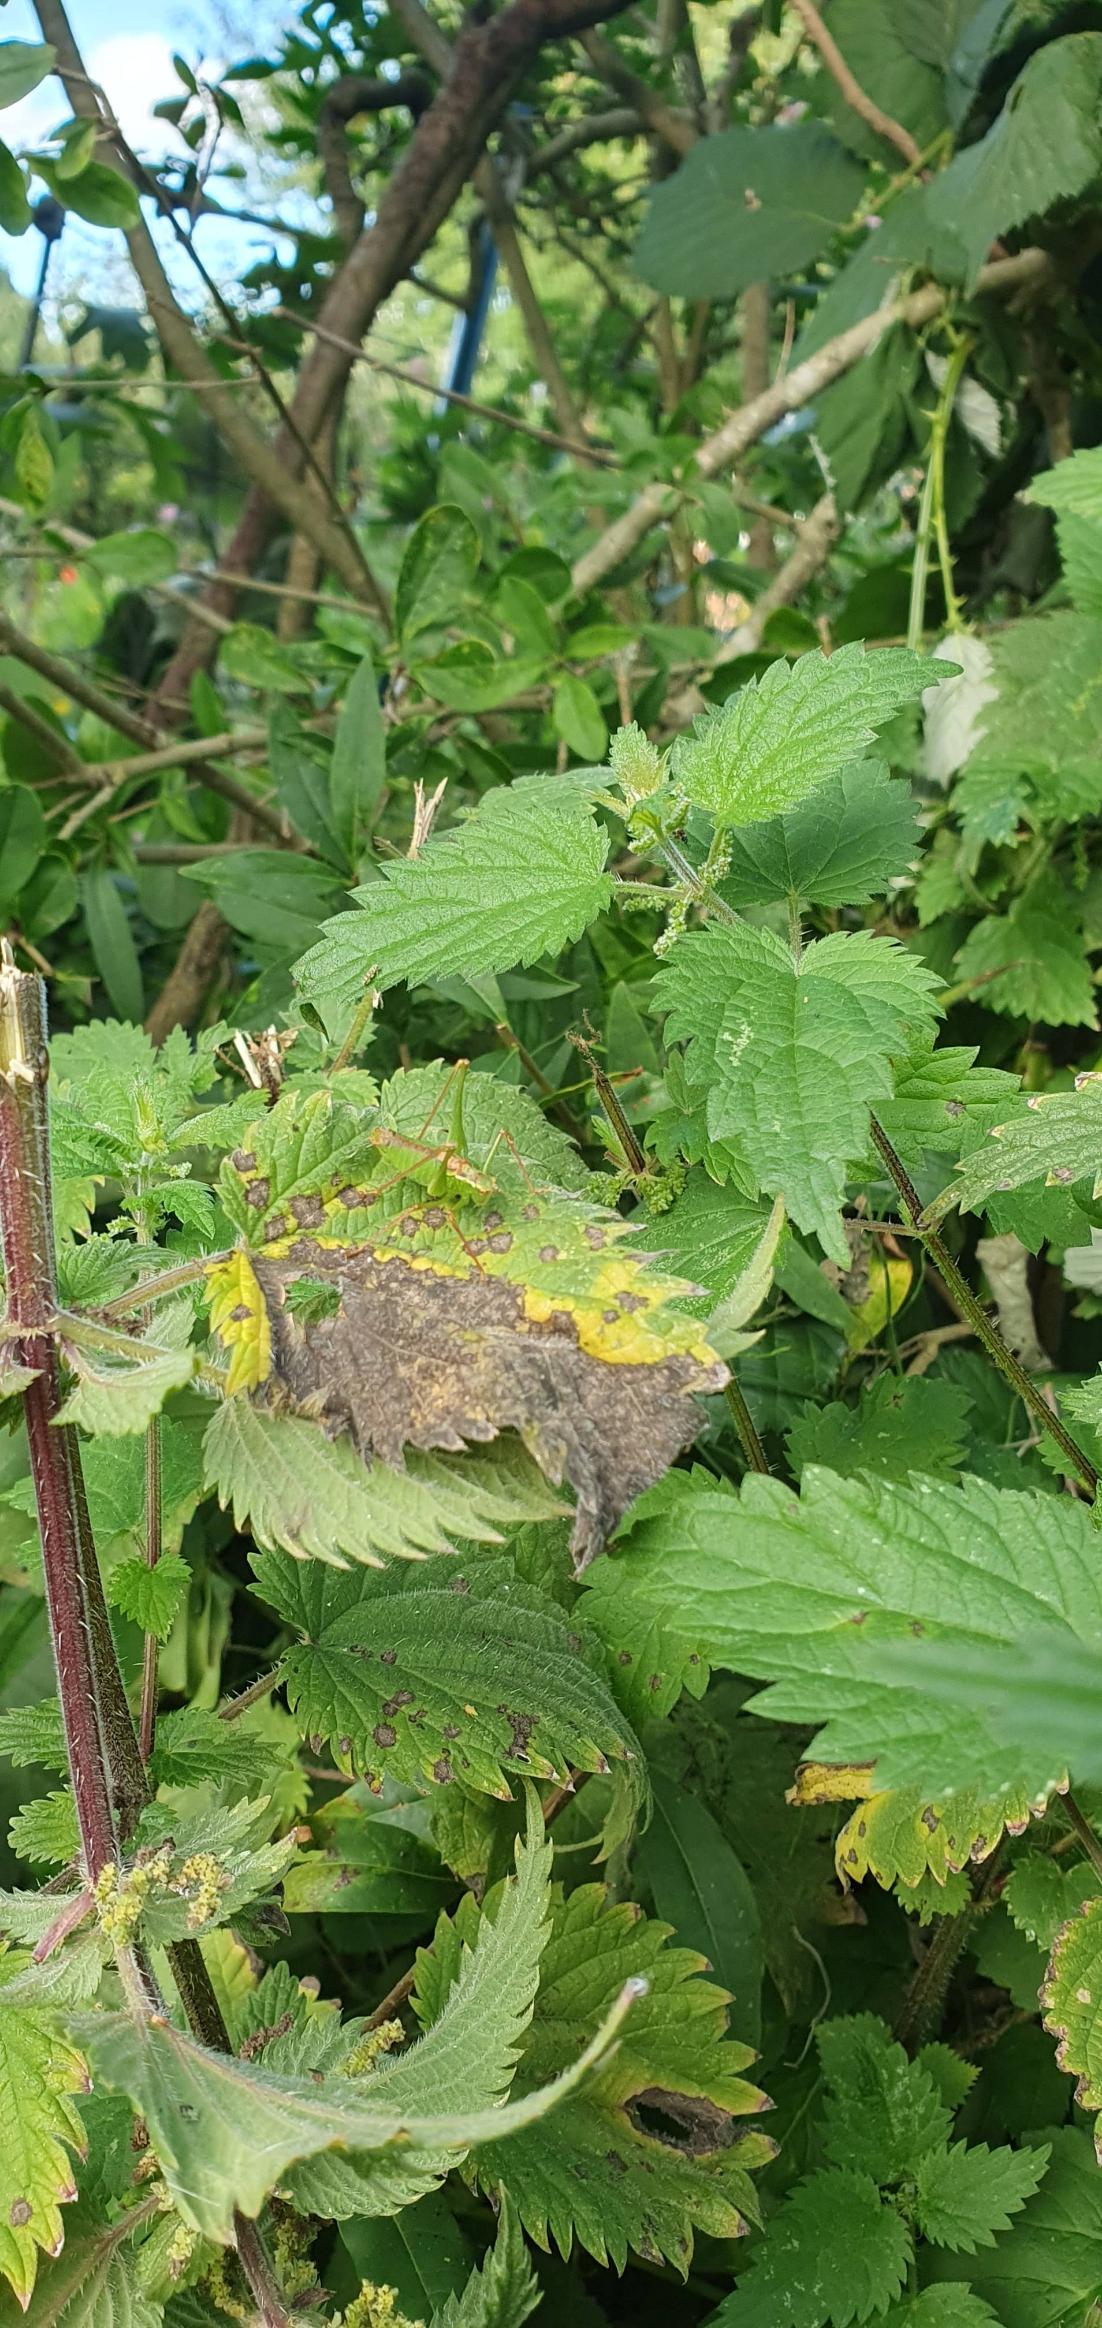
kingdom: Animalia
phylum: Arthropoda
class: Insecta
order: Orthoptera
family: Tettigoniidae
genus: Leptophyes
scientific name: Leptophyes punctatissima
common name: Krumknivgræshoppe
